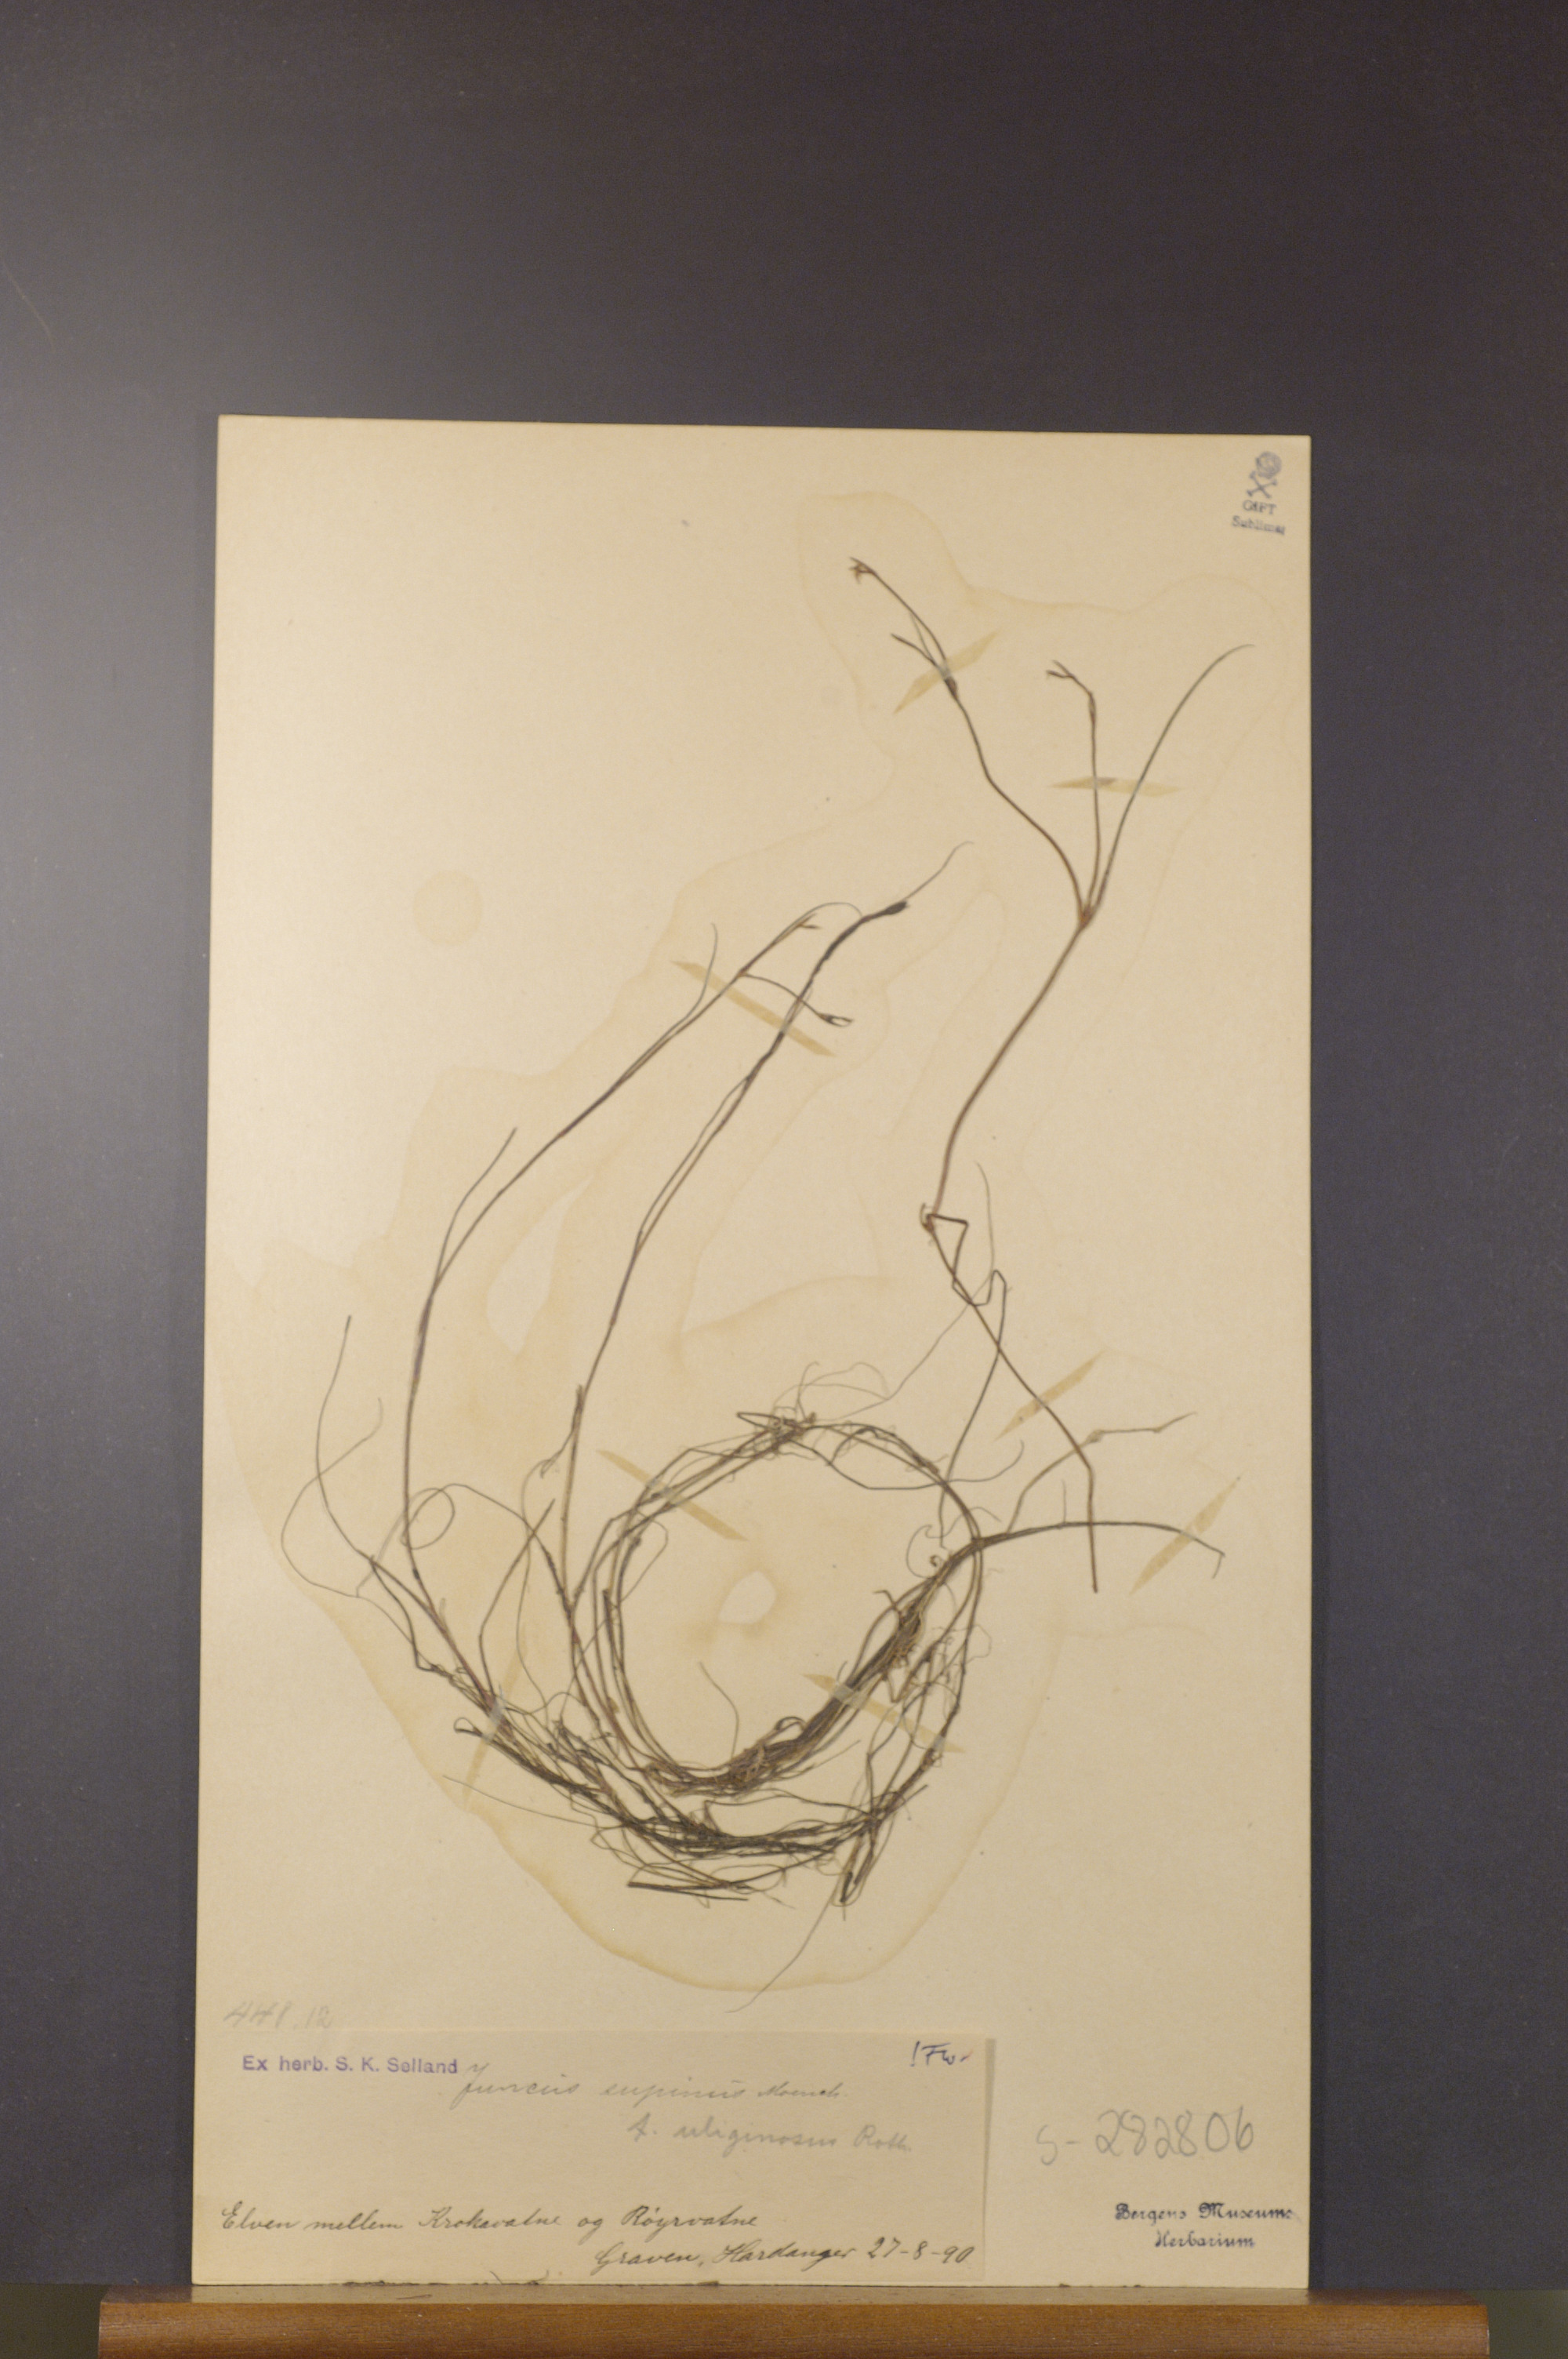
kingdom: Plantae
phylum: Tracheophyta
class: Liliopsida
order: Poales
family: Juncaceae
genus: Juncus
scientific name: Juncus bulbosus
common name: Bulbous rush
